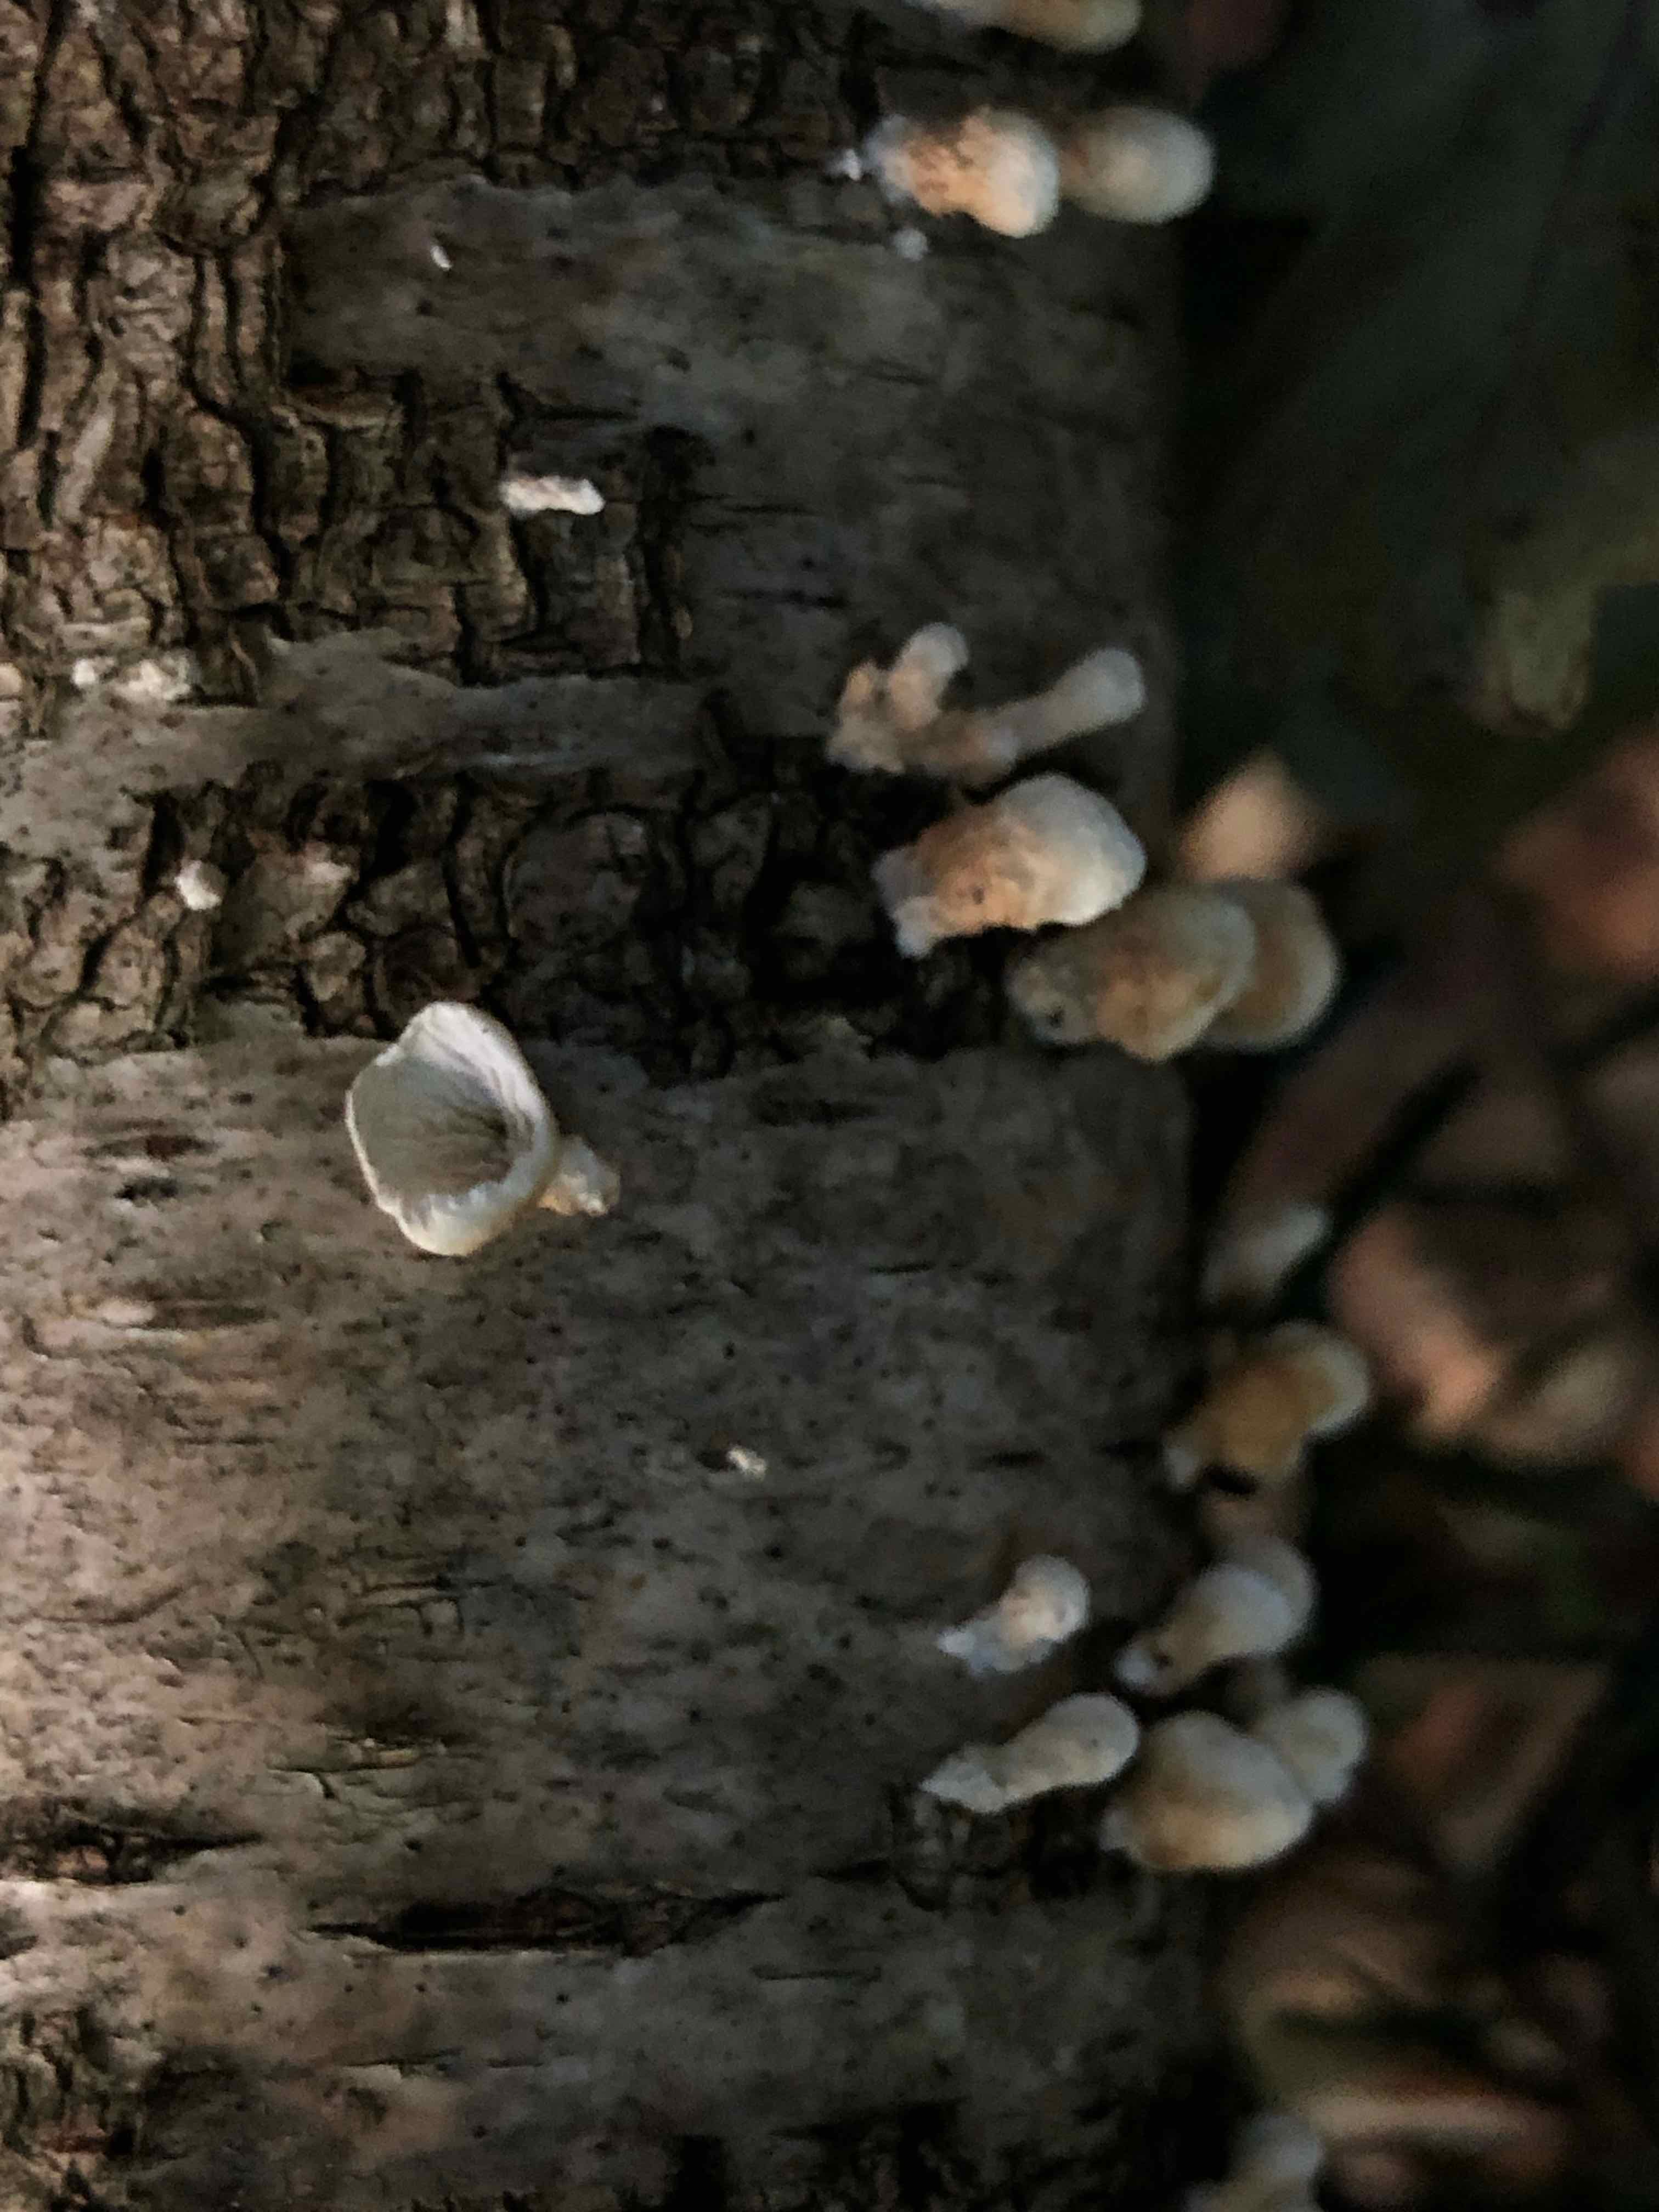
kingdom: Fungi
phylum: Basidiomycota
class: Agaricomycetes
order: Amylocorticiales
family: Amylocorticiaceae
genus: Plicaturopsis
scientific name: Plicaturopsis crispa
